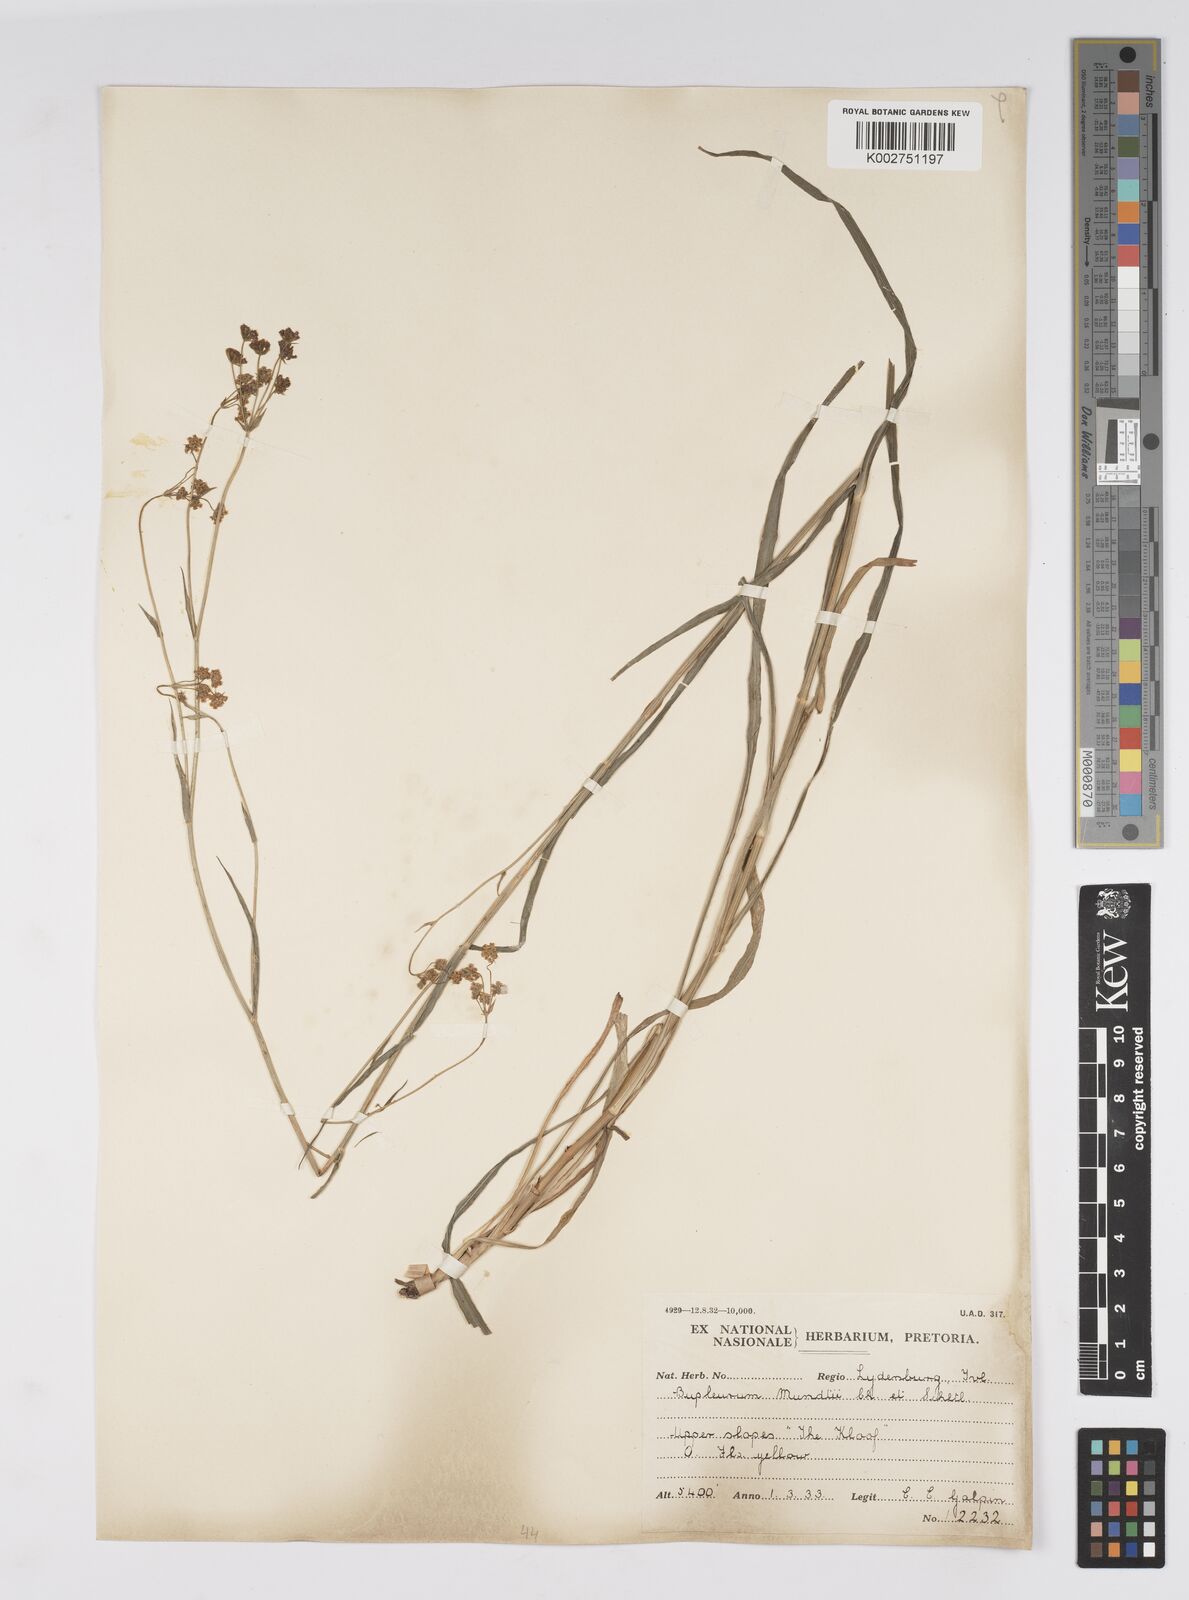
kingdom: Plantae
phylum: Tracheophyta
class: Magnoliopsida
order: Apiales
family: Apiaceae
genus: Bupleurum
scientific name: Bupleurum mundii
